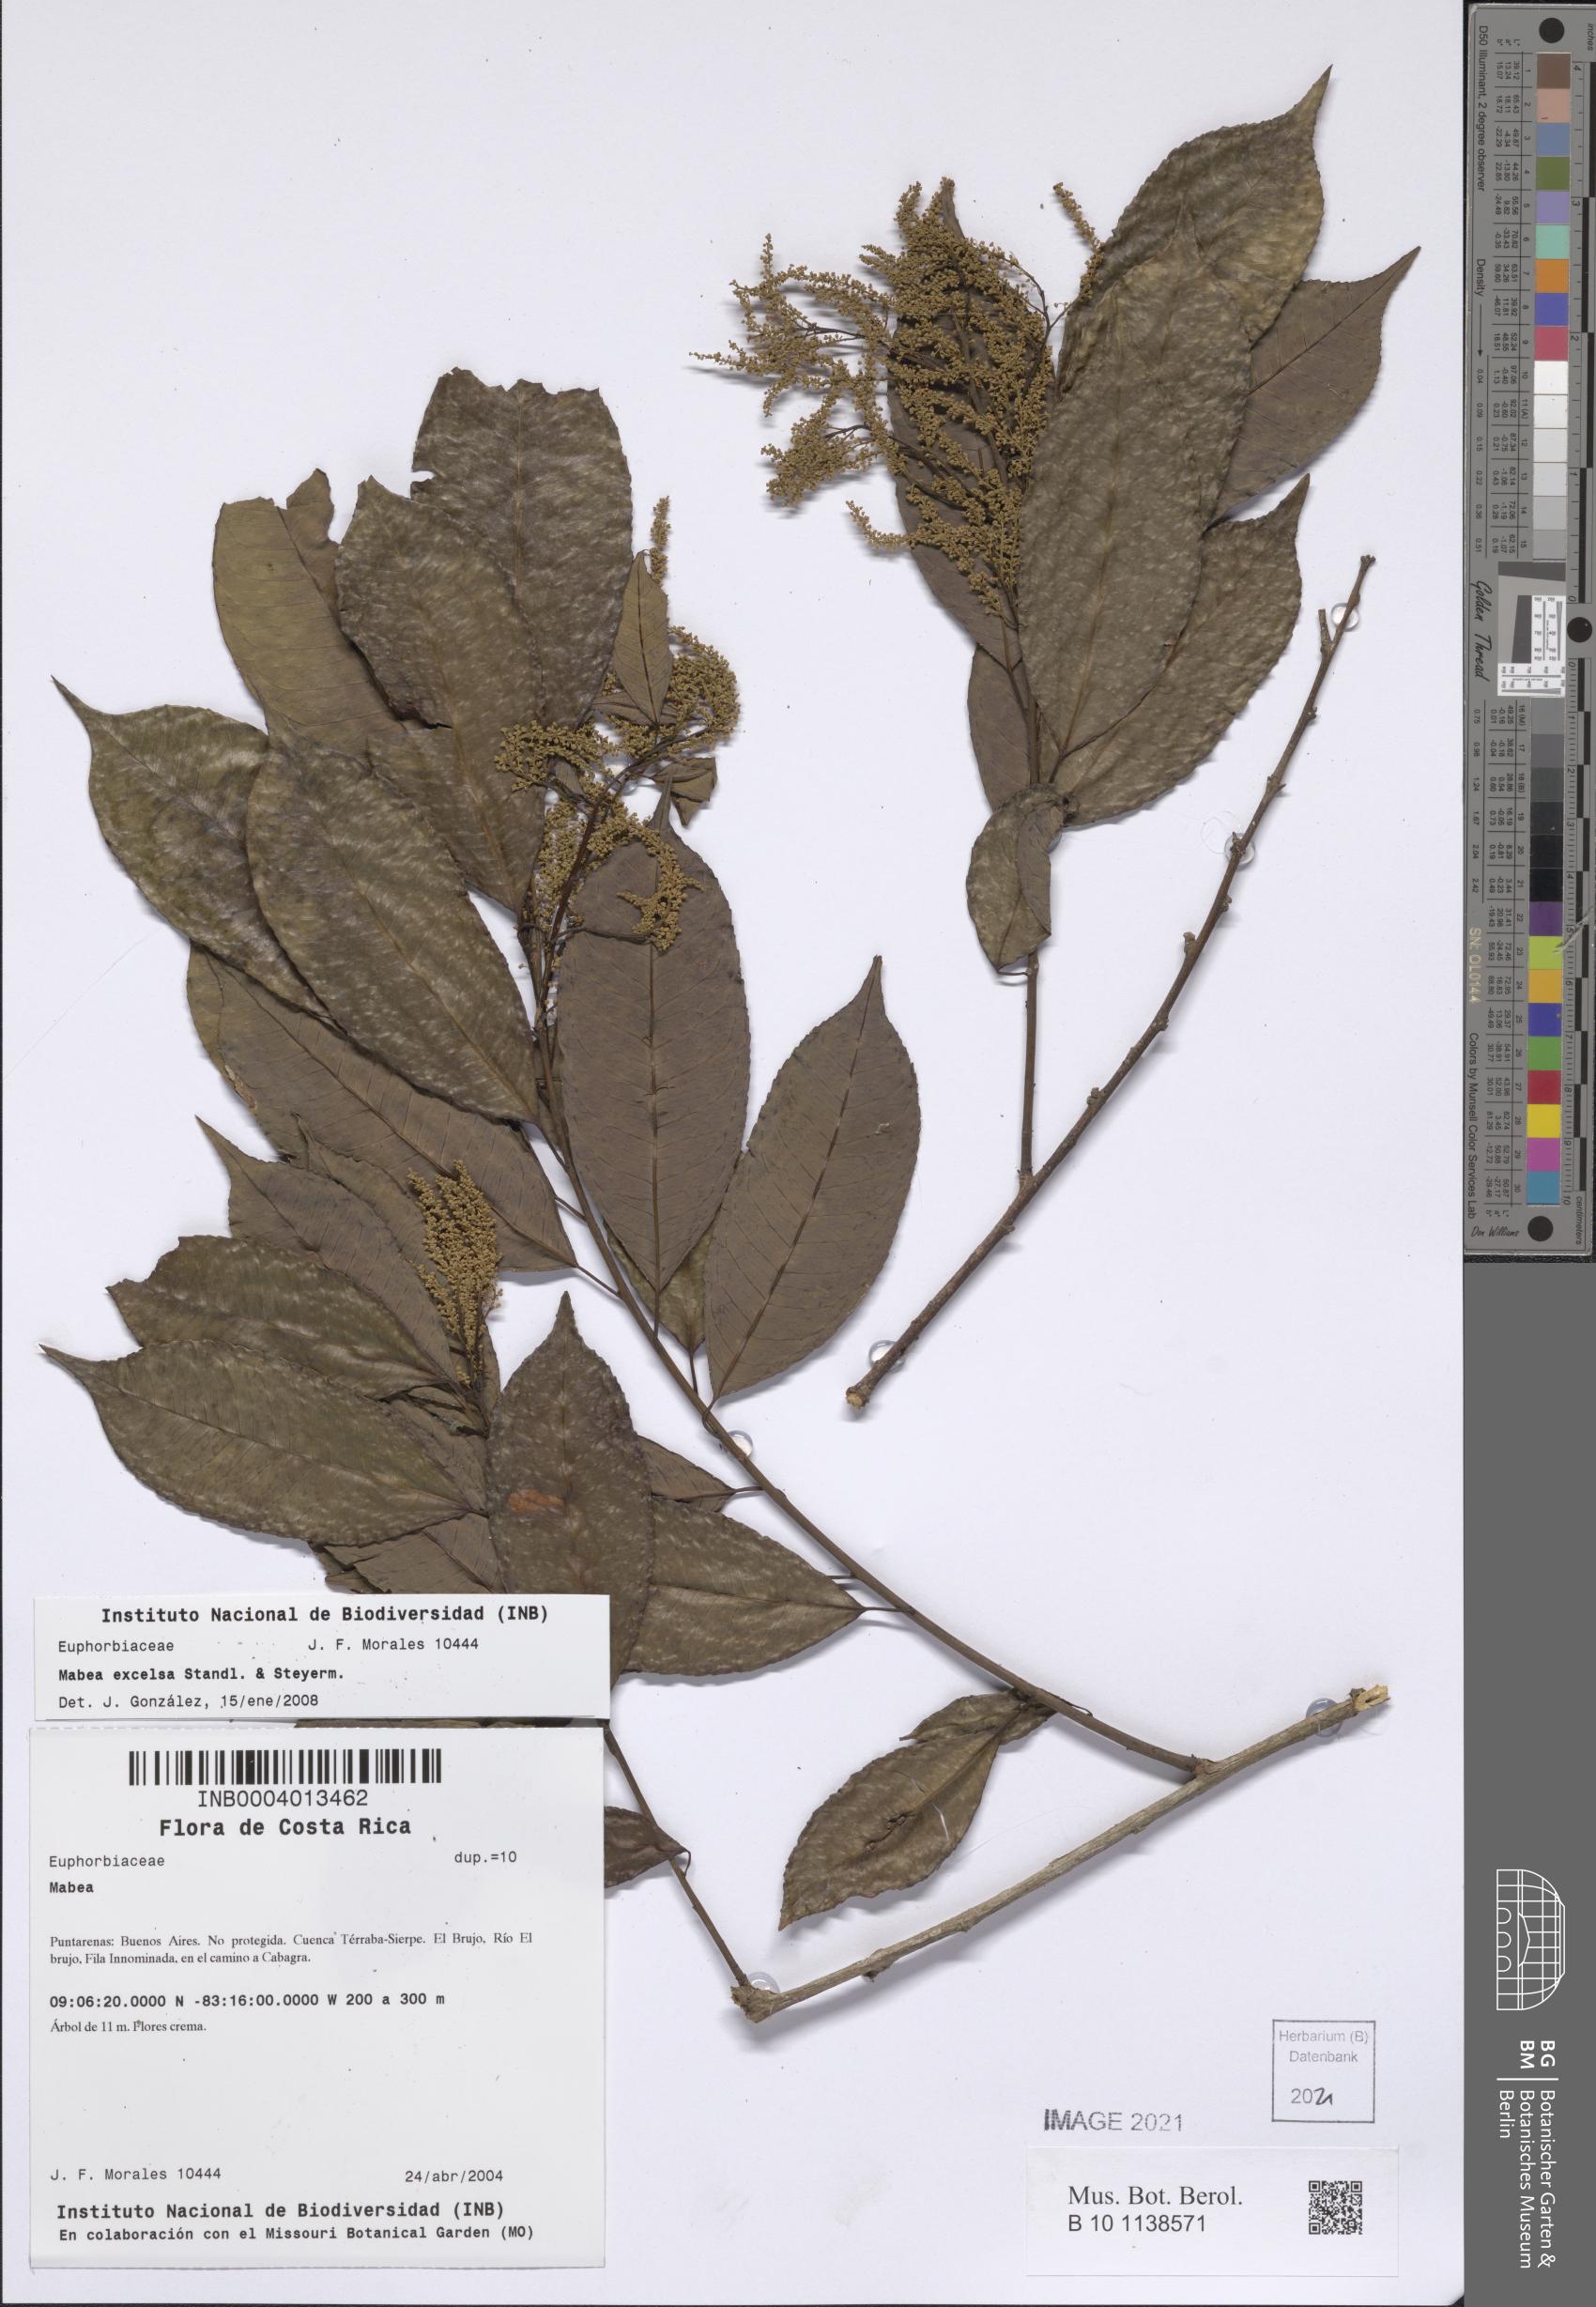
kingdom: Plantae
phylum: Tracheophyta
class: Magnoliopsida
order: Malpighiales
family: Euphorbiaceae
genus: Mabea
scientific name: Mabea excelsa
